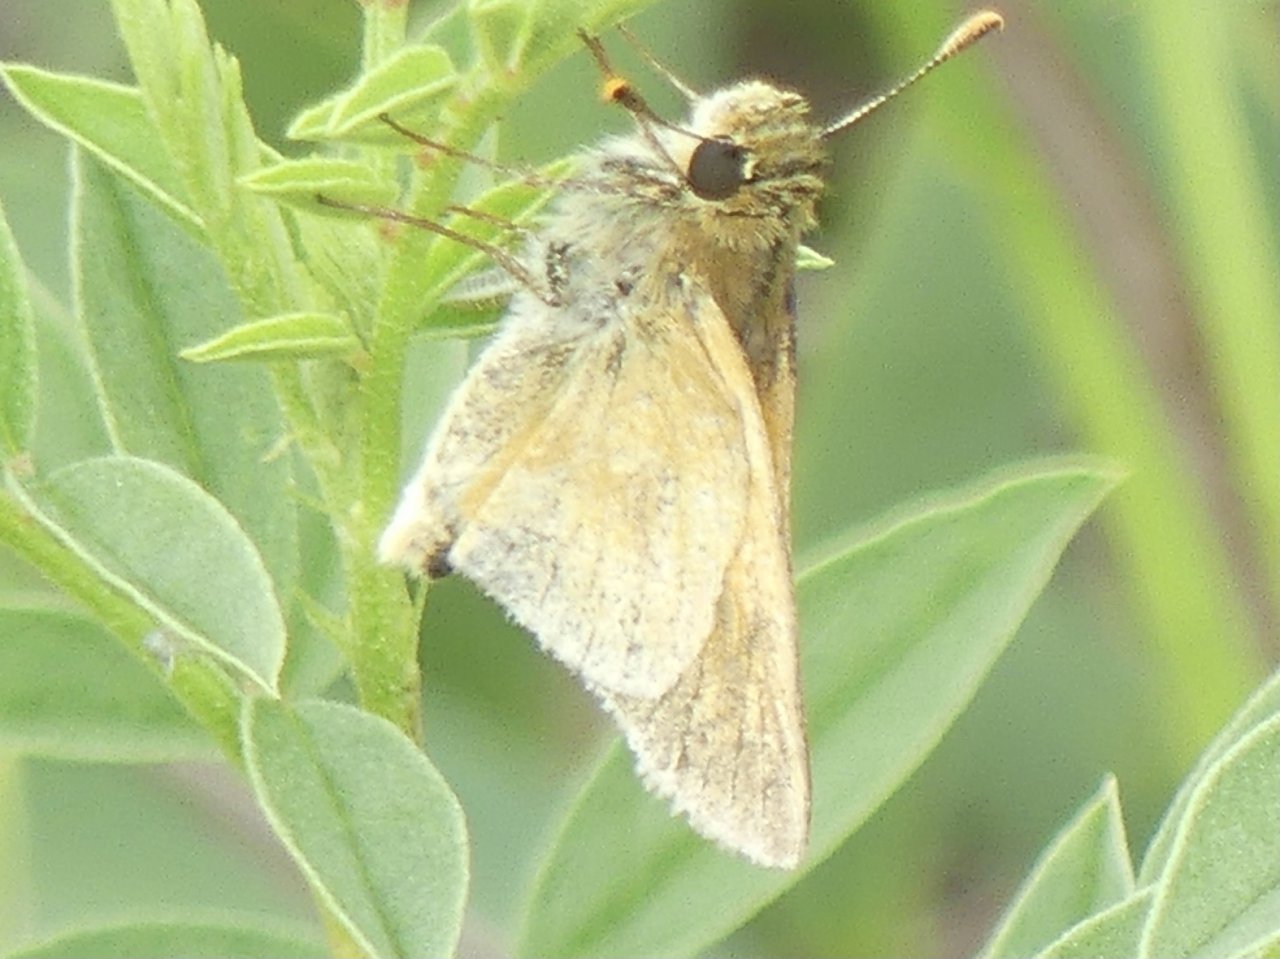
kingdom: Animalia
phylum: Arthropoda
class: Insecta
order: Lepidoptera
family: Hesperiidae
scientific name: Hesperiidae
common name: Skippers
